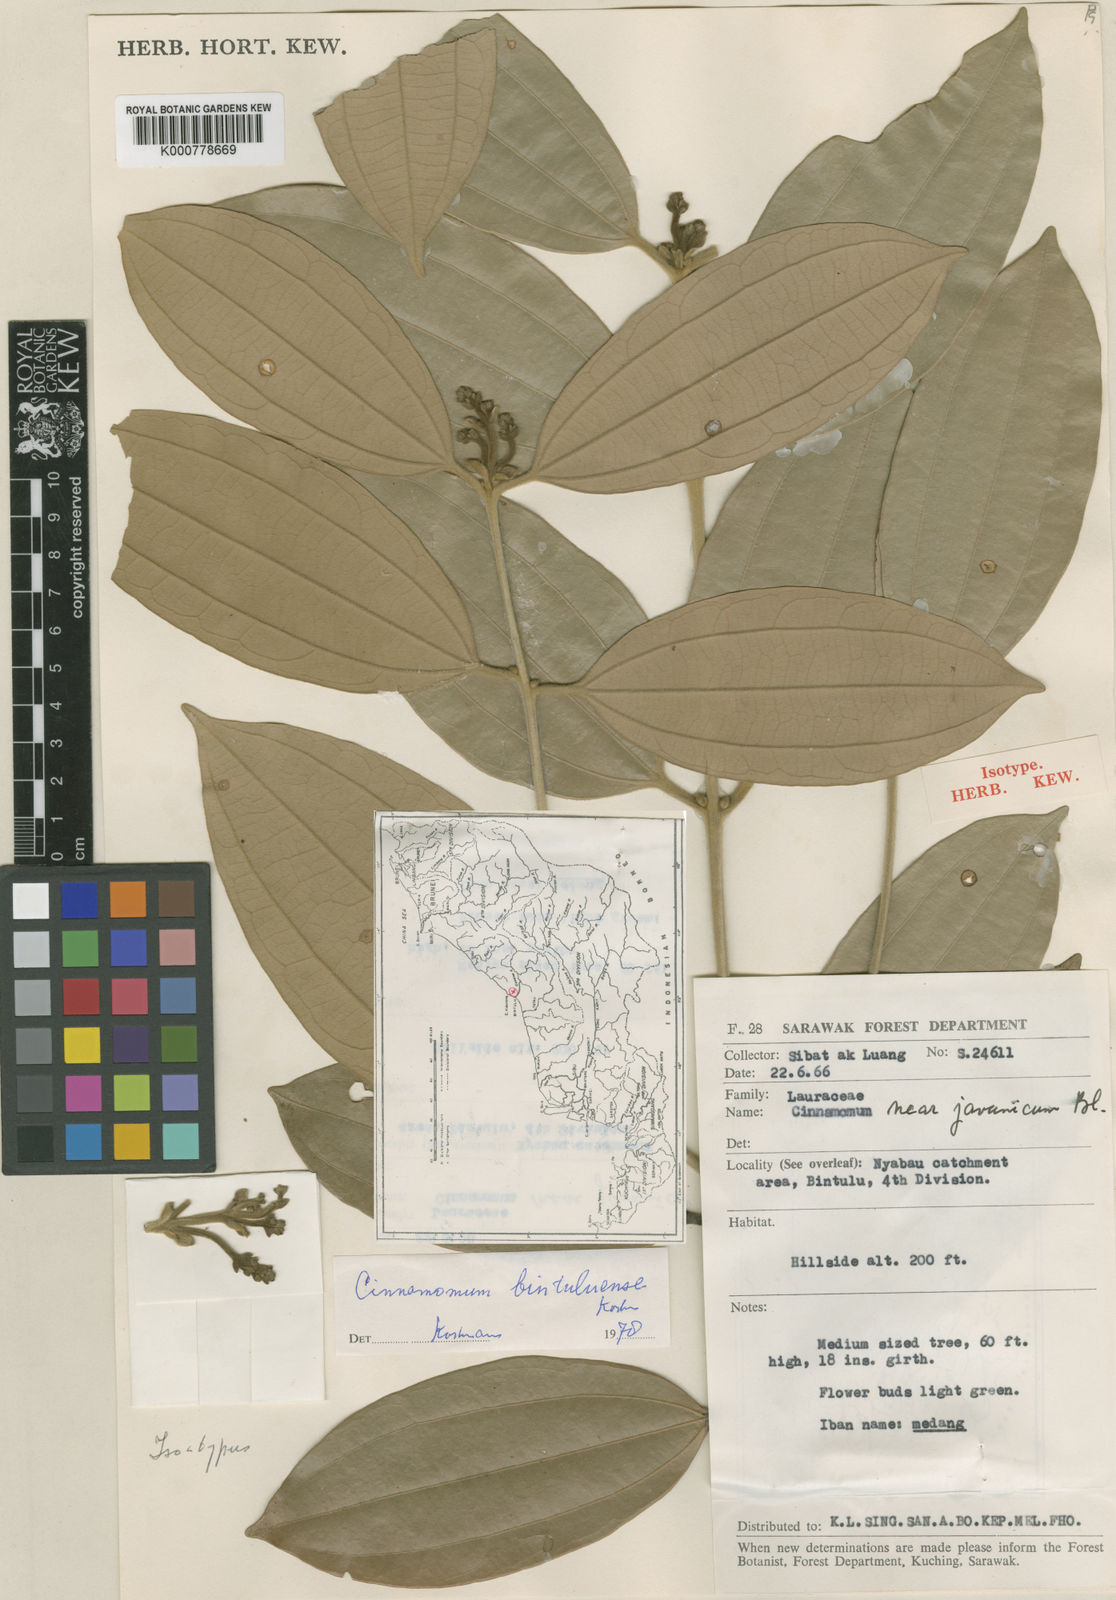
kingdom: Plantae
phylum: Tracheophyta
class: Magnoliopsida
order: Laurales
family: Lauraceae
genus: Cinnamomum
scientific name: Cinnamomum tahijanum
